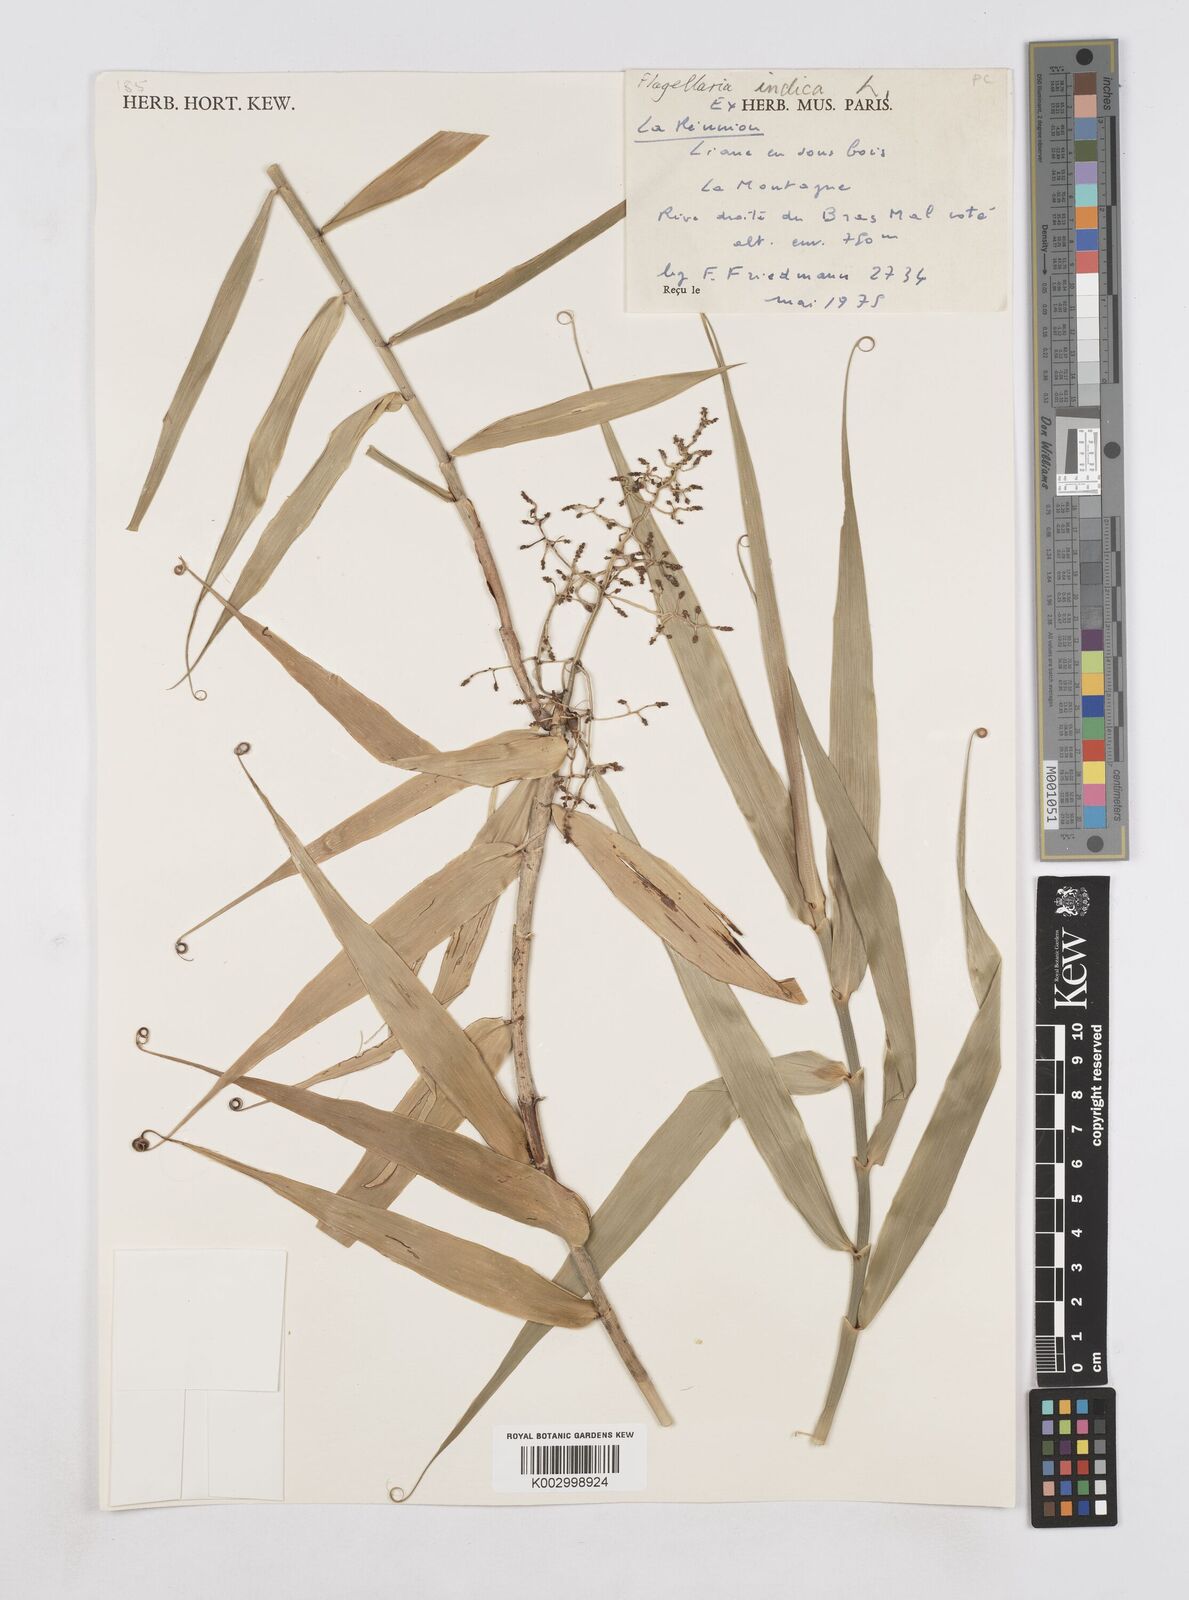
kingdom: Plantae
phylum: Tracheophyta
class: Liliopsida
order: Poales
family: Flagellariaceae
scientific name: Flagellariaceae
